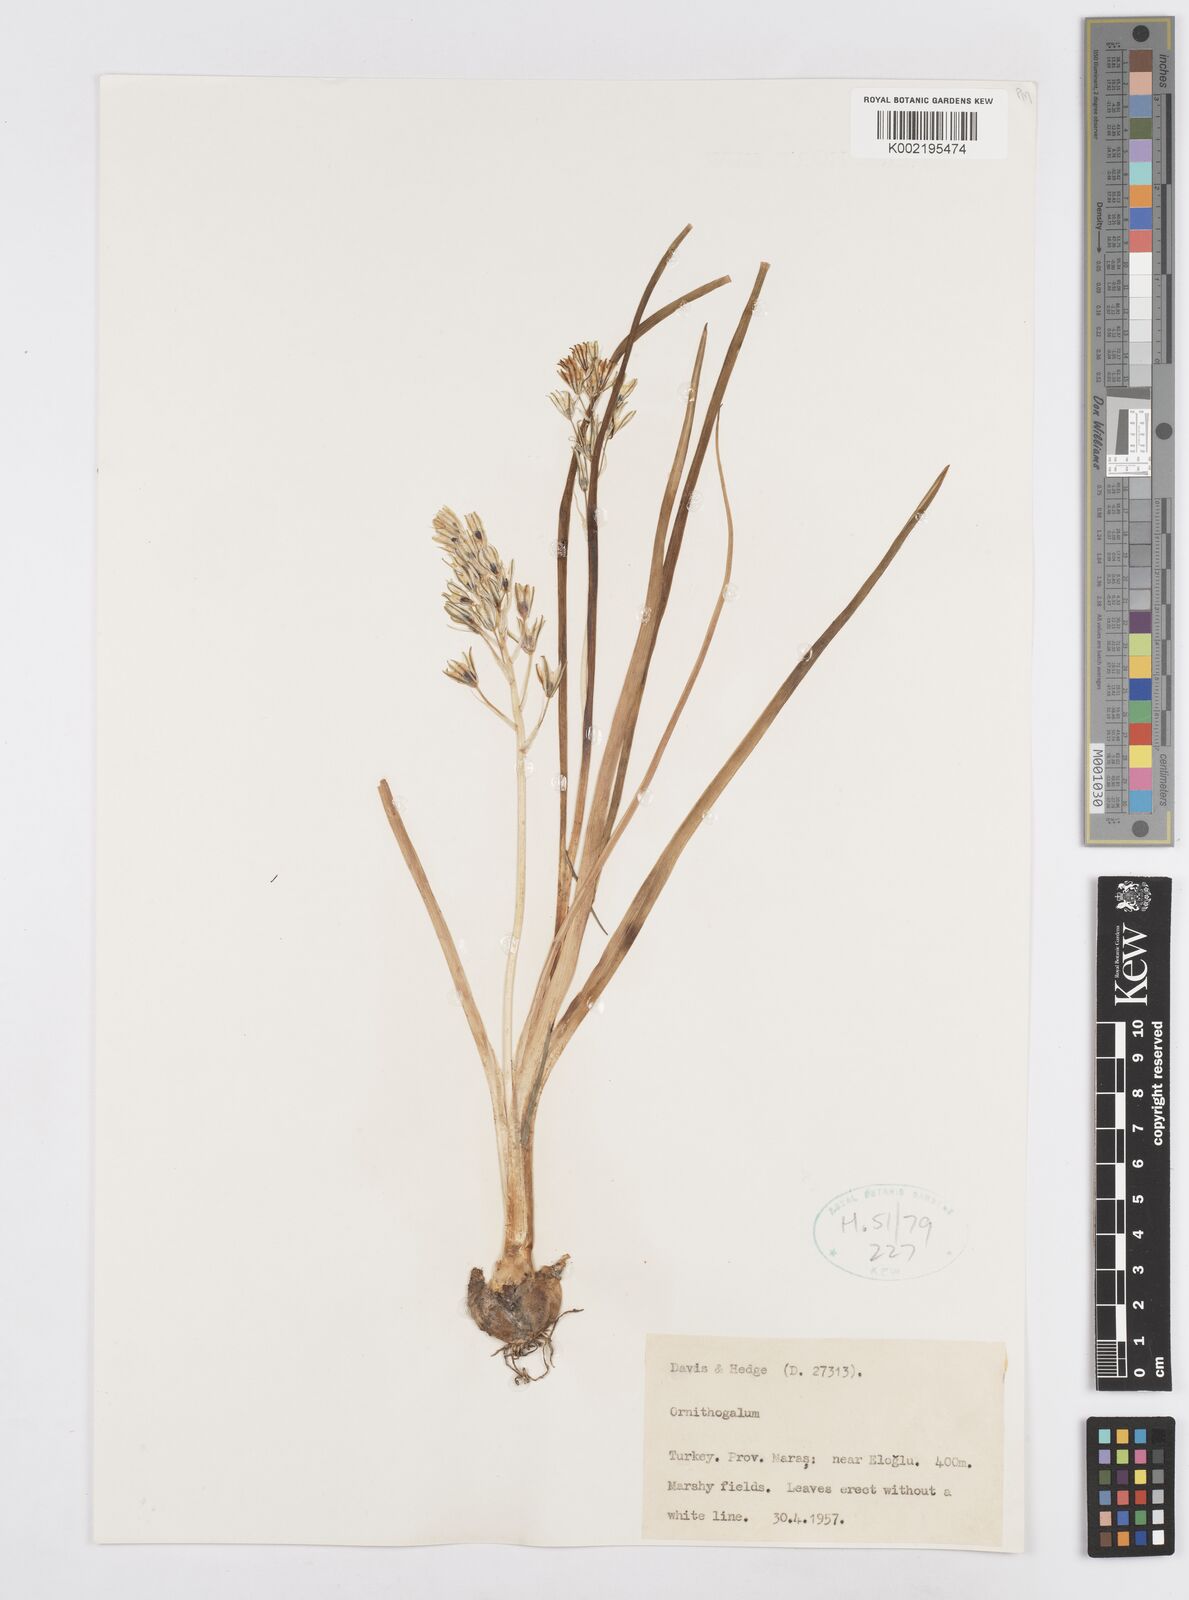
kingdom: Plantae
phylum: Tracheophyta
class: Liliopsida
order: Asparagales
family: Asparagaceae
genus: Ornithogalum
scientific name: Ornithogalum
